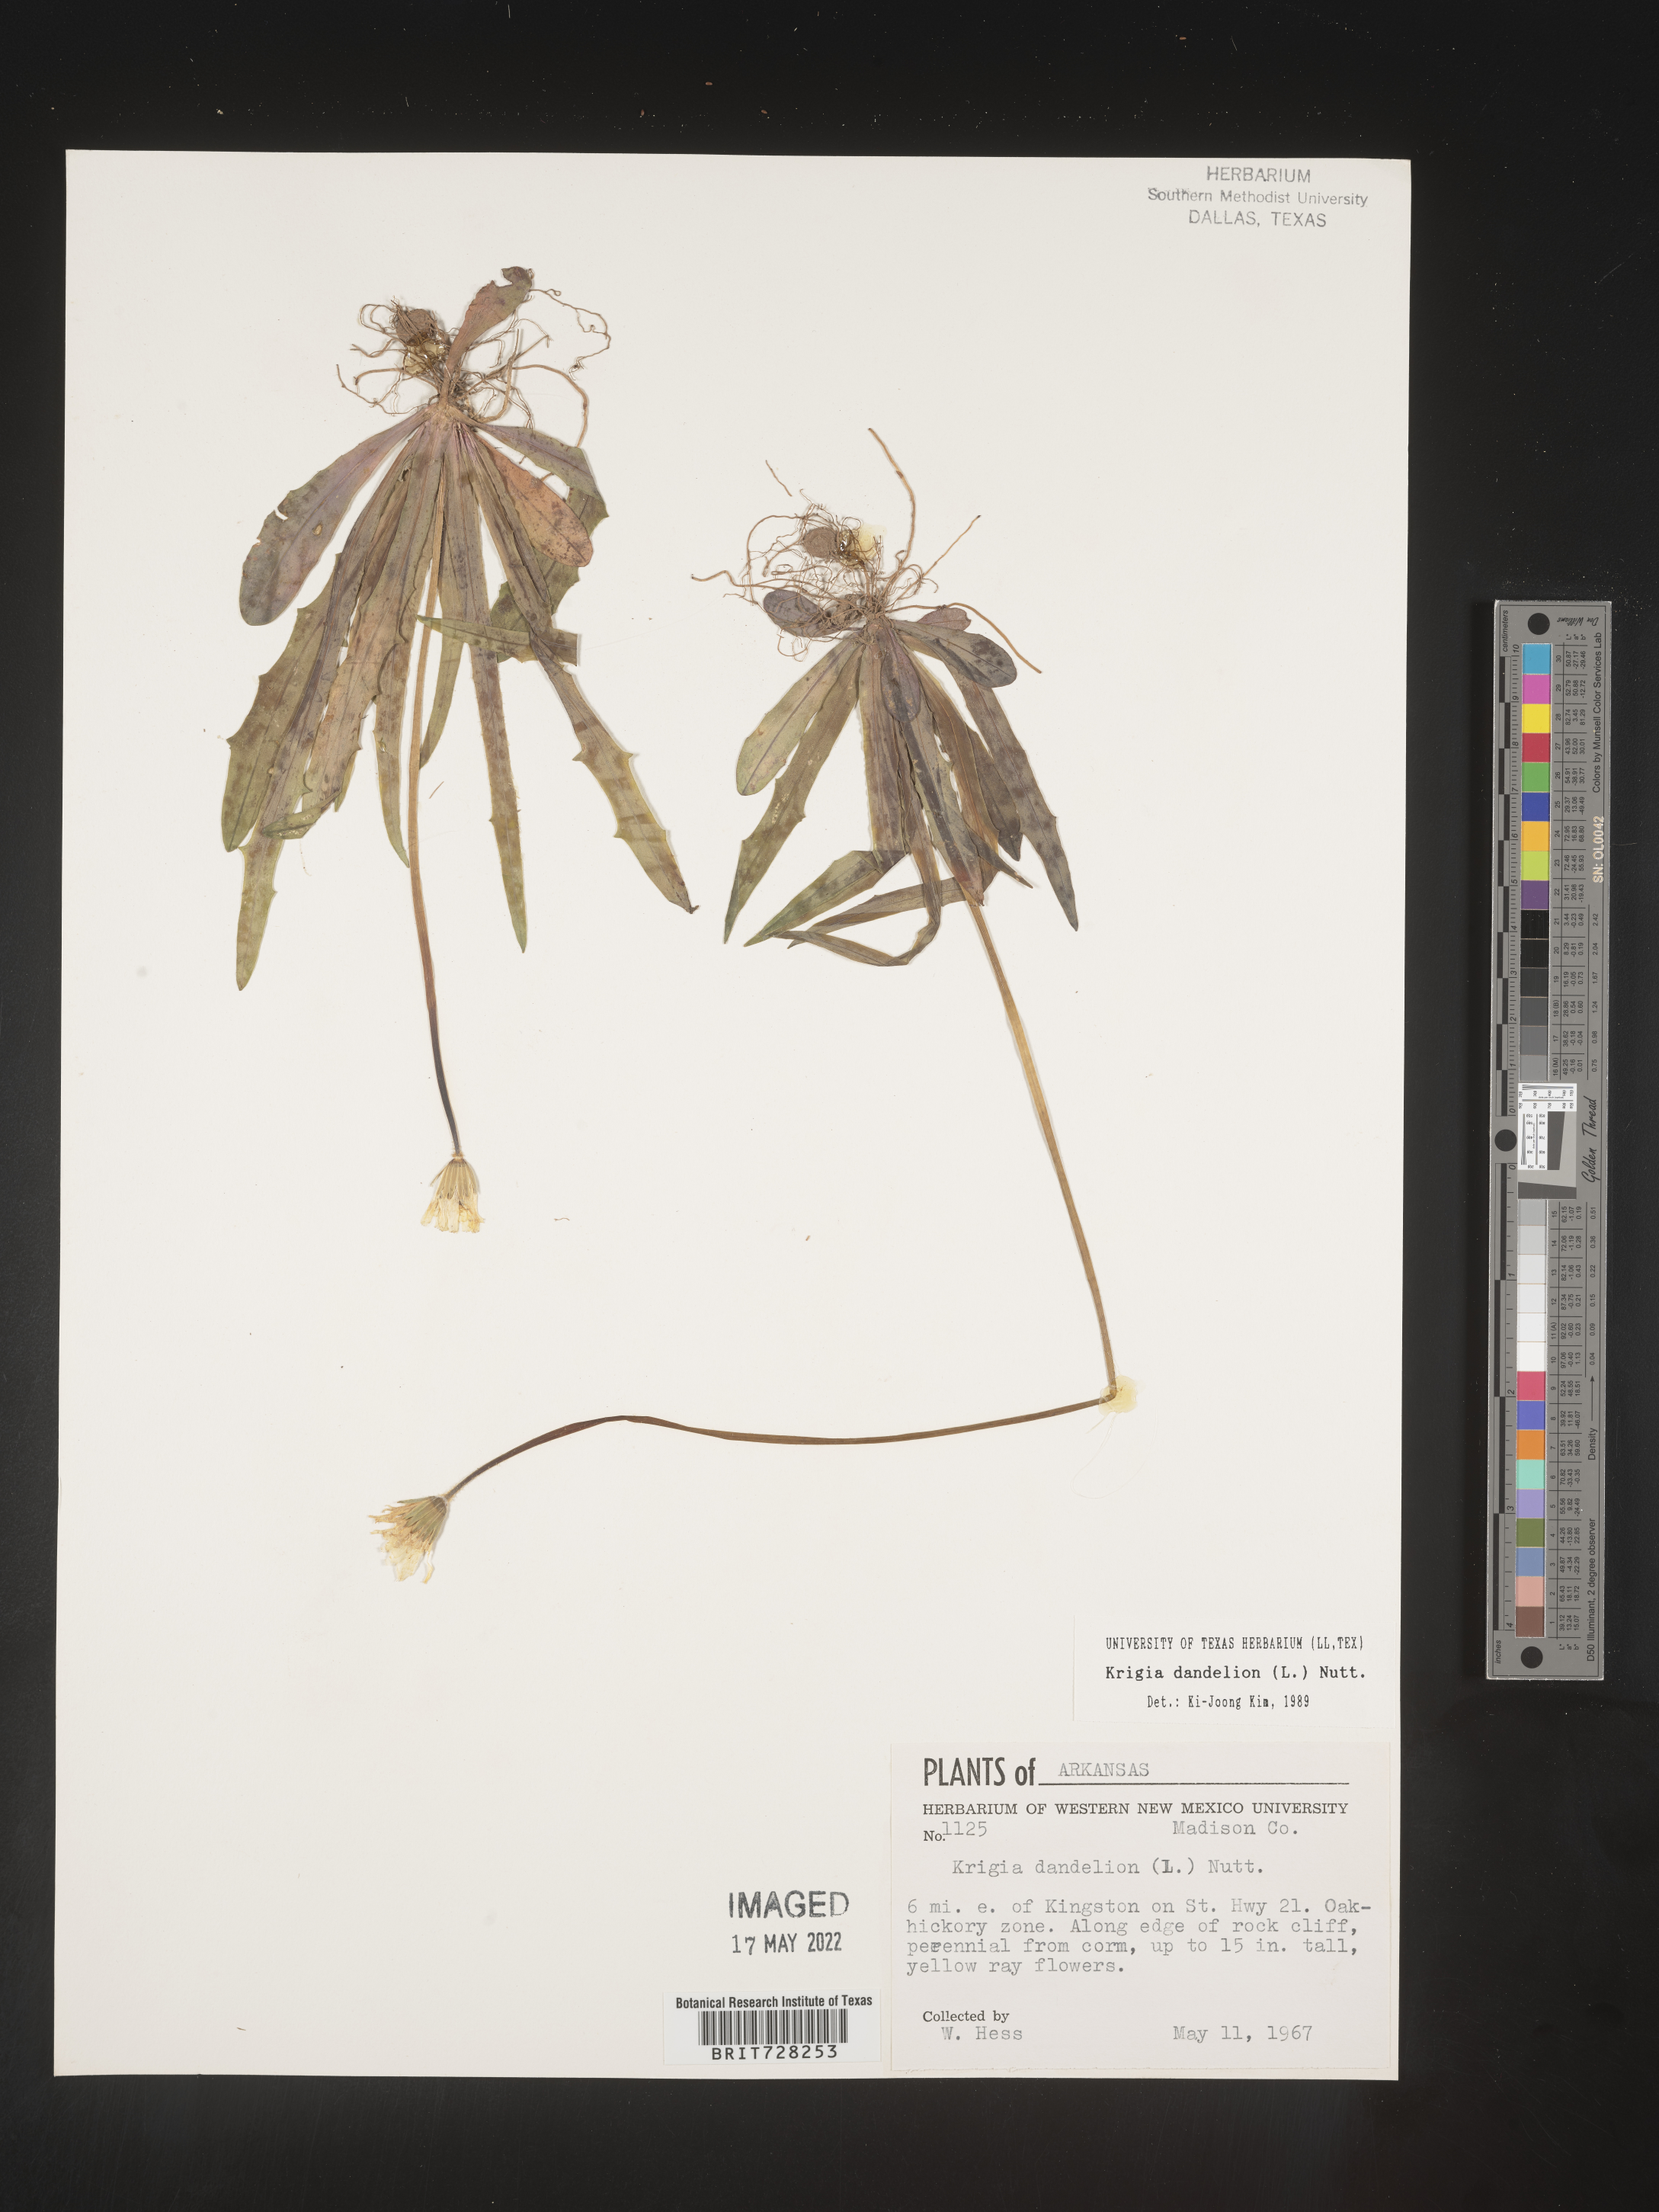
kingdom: Plantae
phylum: Tracheophyta
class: Magnoliopsida
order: Asterales
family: Asteraceae
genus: Krigia
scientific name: Krigia dandelion
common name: Colonial dwarf-dandelion
